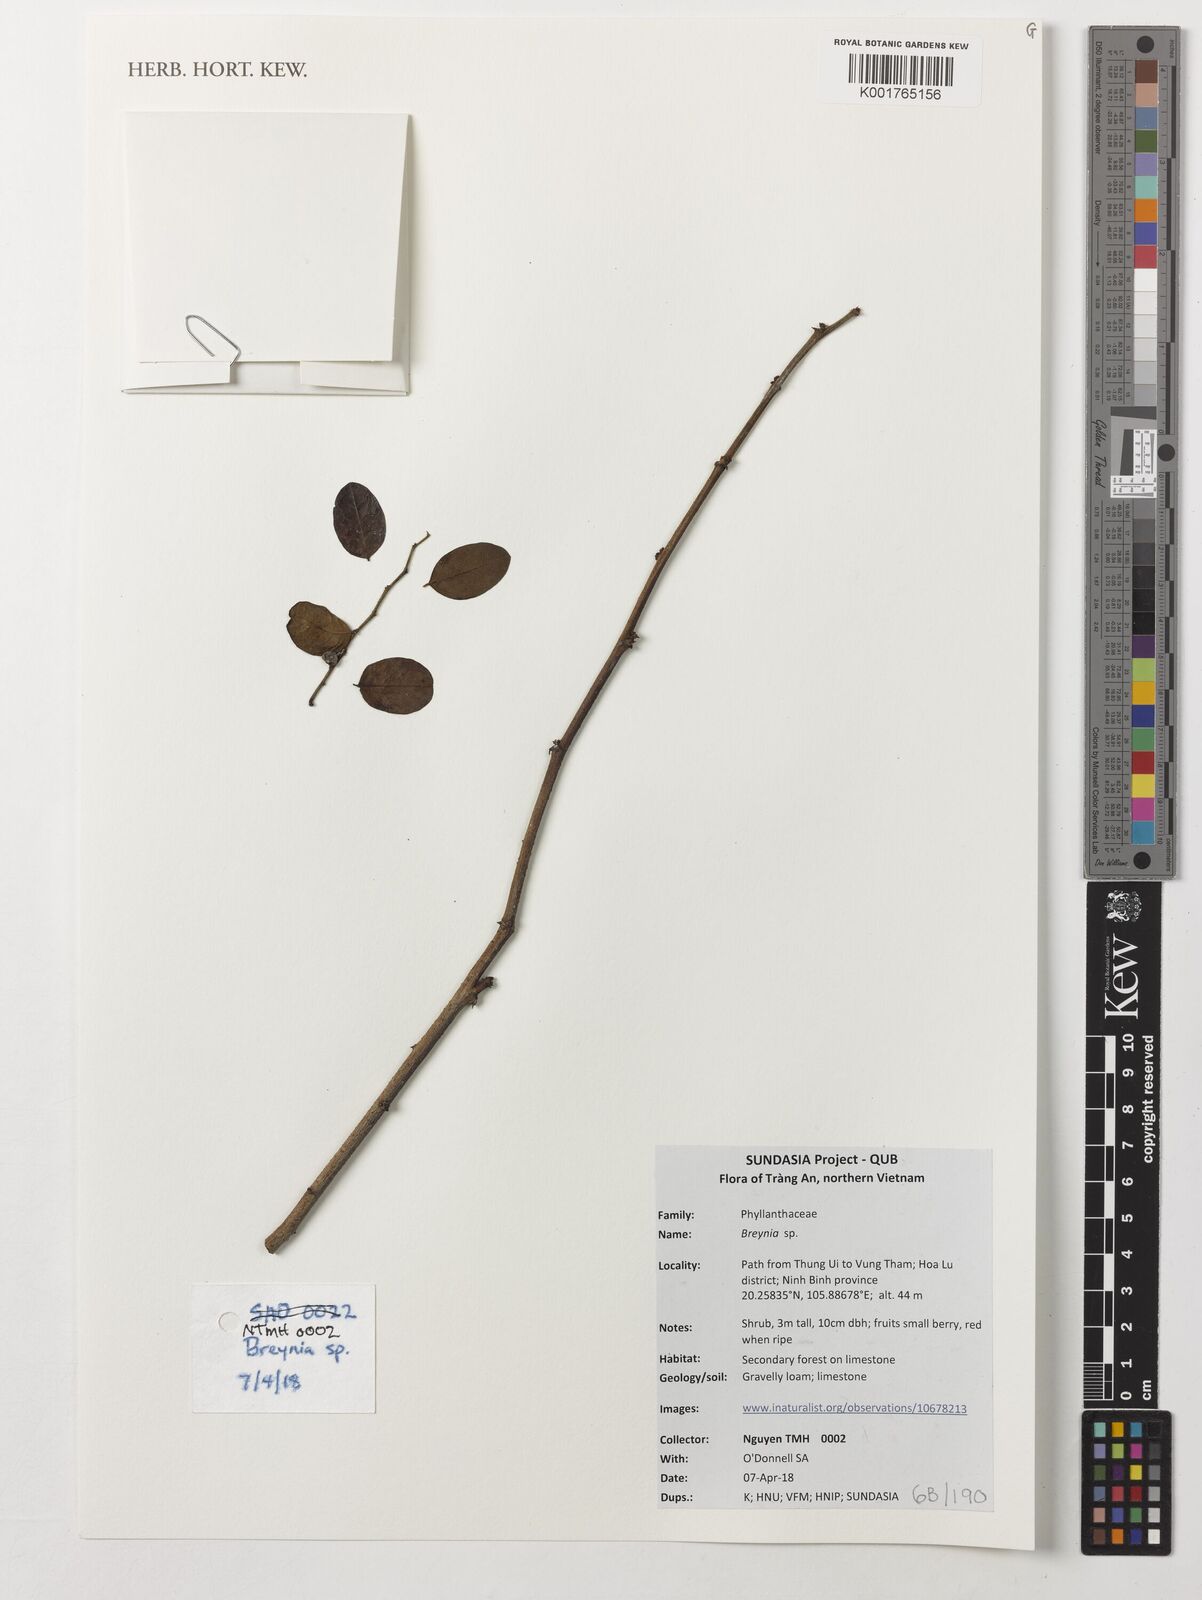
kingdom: Plantae
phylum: Tracheophyta
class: Magnoliopsida
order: Malpighiales
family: Phyllanthaceae
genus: Breynia
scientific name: Breynia
